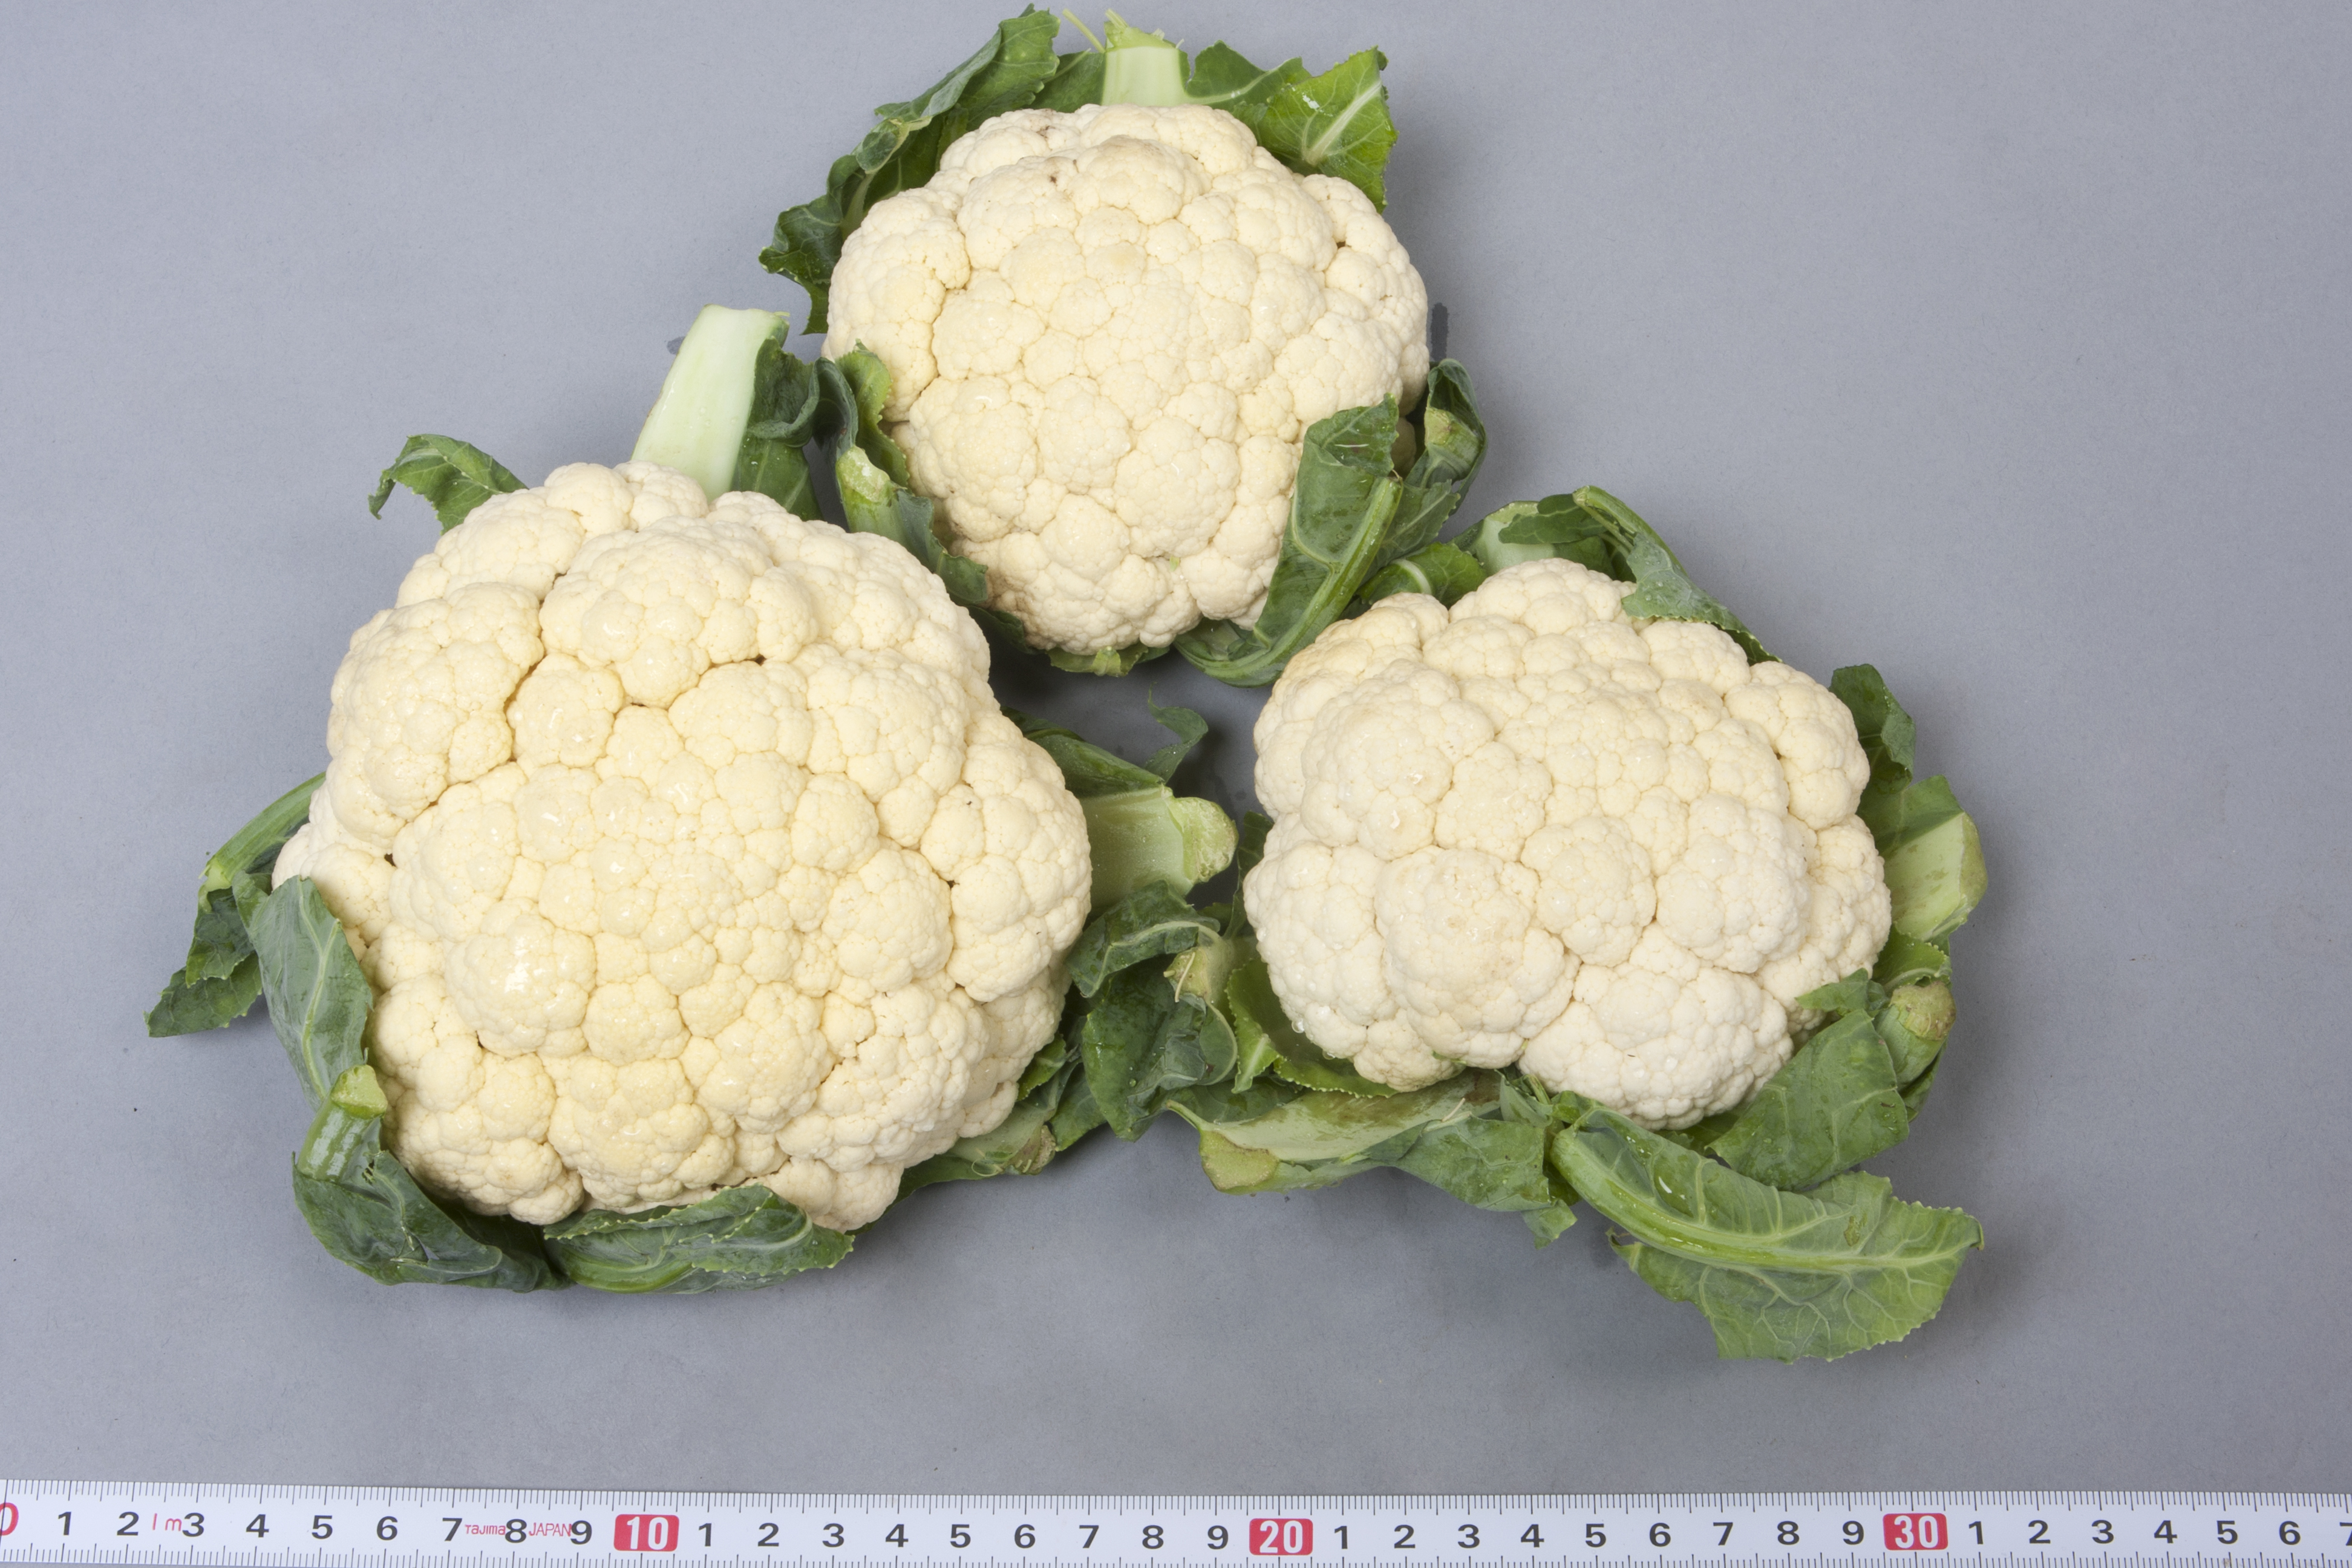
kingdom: Plantae
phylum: Tracheophyta
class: Magnoliopsida
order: Brassicales
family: Brassicaceae
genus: Brassica
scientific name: Brassica oleracea
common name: Cabbage
